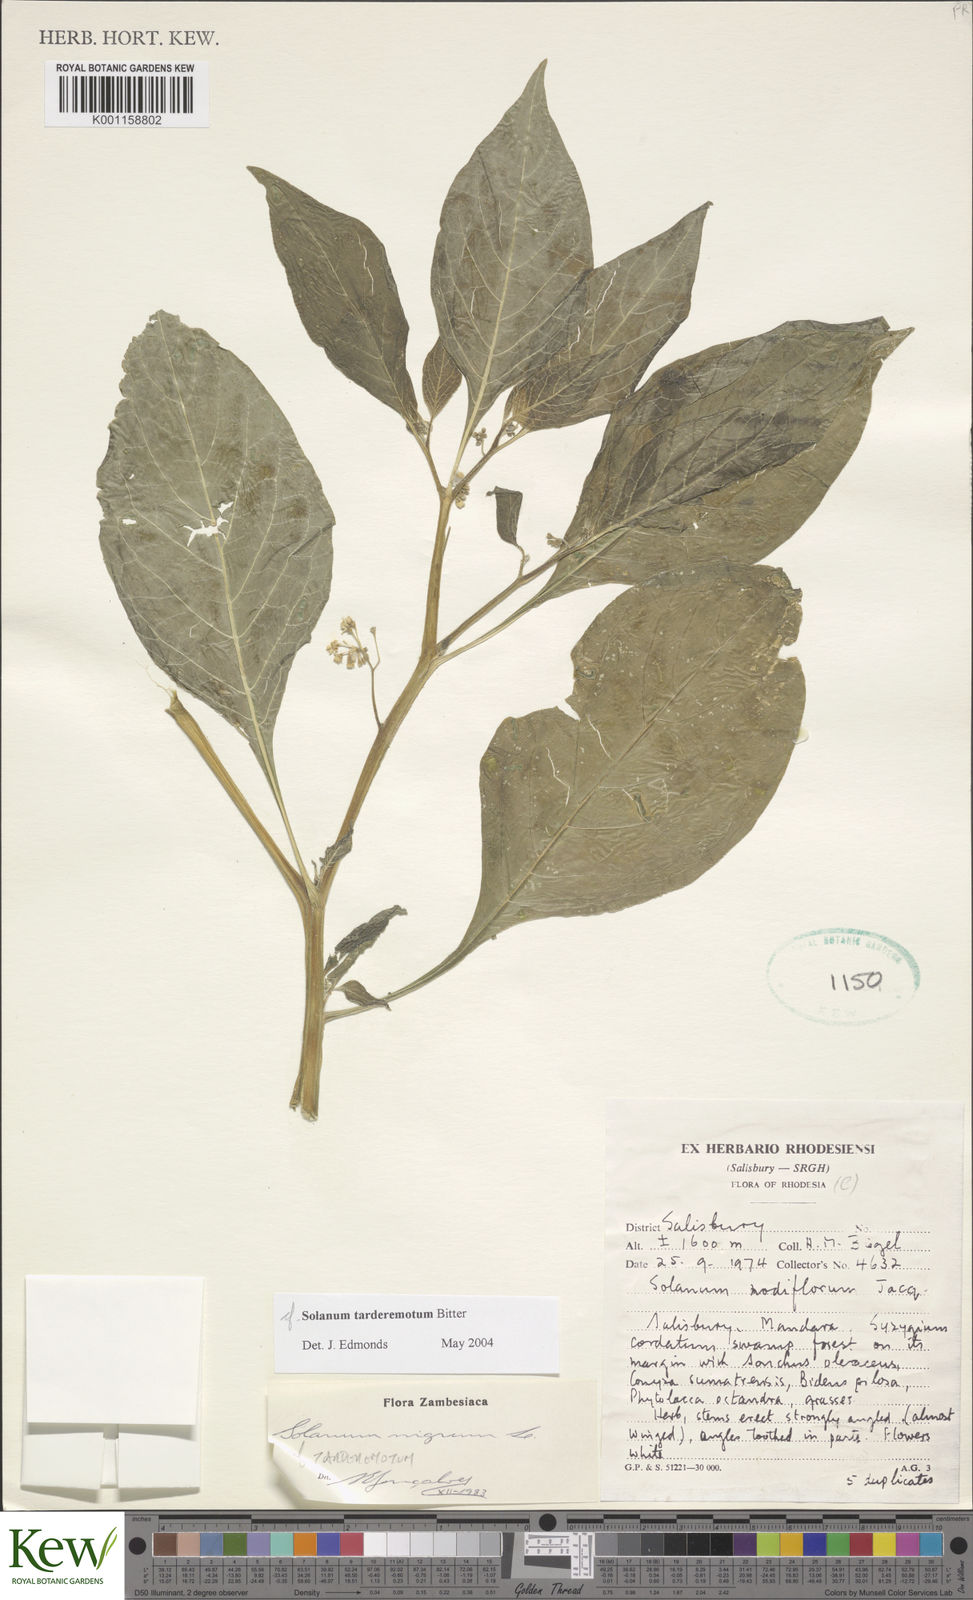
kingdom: Plantae
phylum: Tracheophyta
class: Magnoliopsida
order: Solanales
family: Solanaceae
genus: Solanum
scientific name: Solanum tarderemotum
